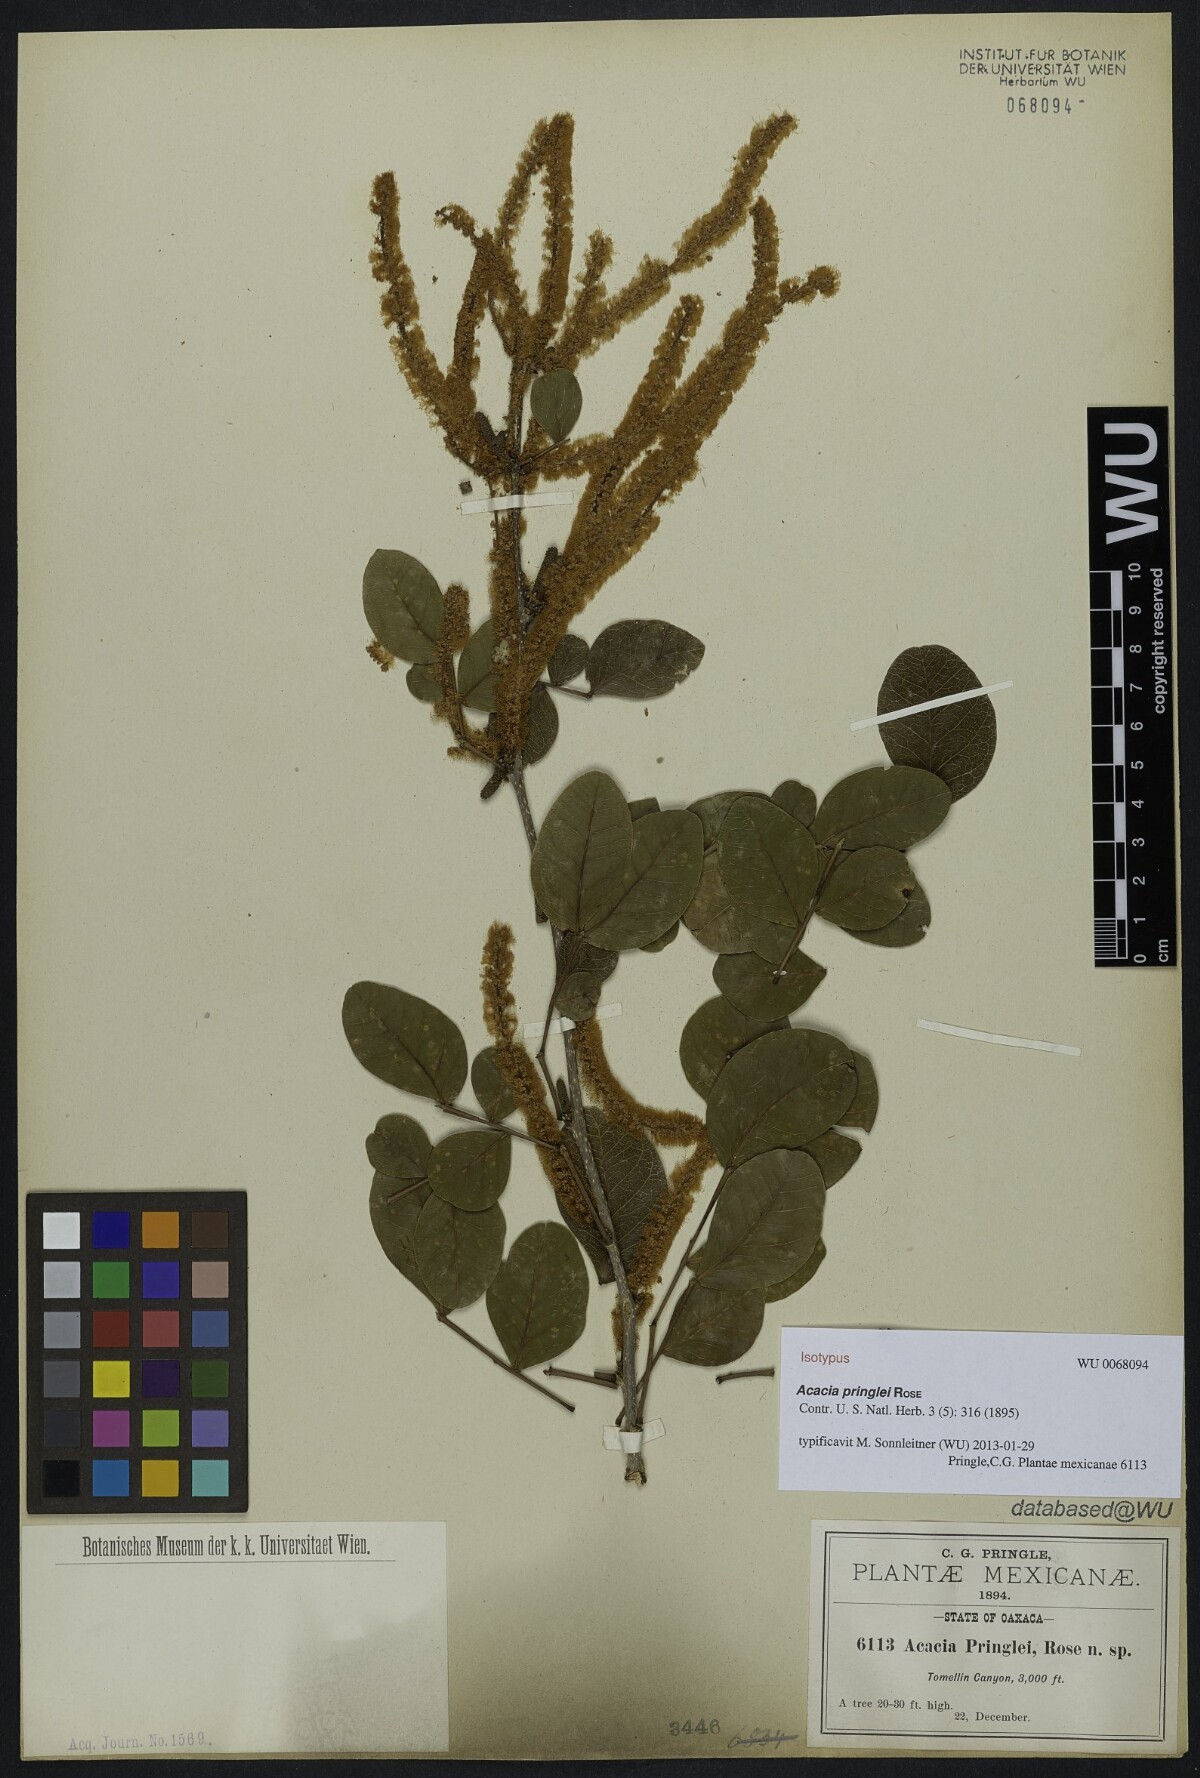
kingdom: Plantae
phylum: Tracheophyta
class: Magnoliopsida
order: Fabales
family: Fabaceae
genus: Vachellia
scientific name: Vachellia pringlei
